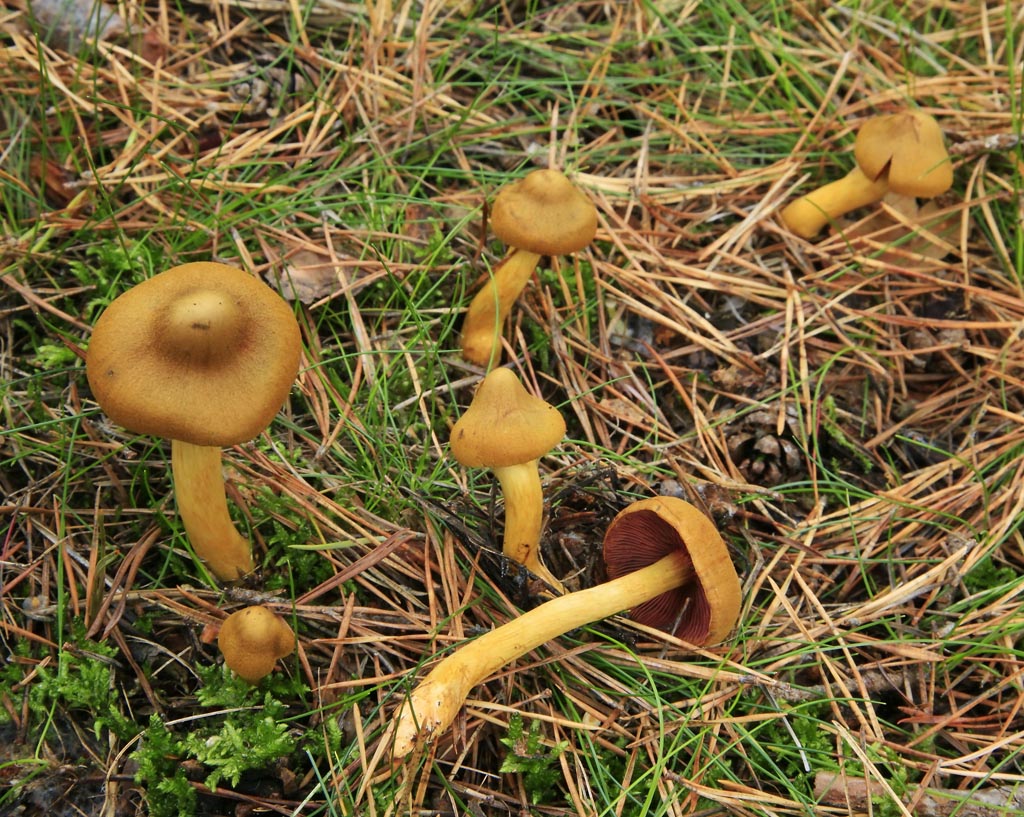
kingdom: Fungi
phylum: Basidiomycota
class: Agaricomycetes
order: Agaricales
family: Cortinariaceae
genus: Cortinarius
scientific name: Cortinarius
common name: cinnoberbladet slørhat
